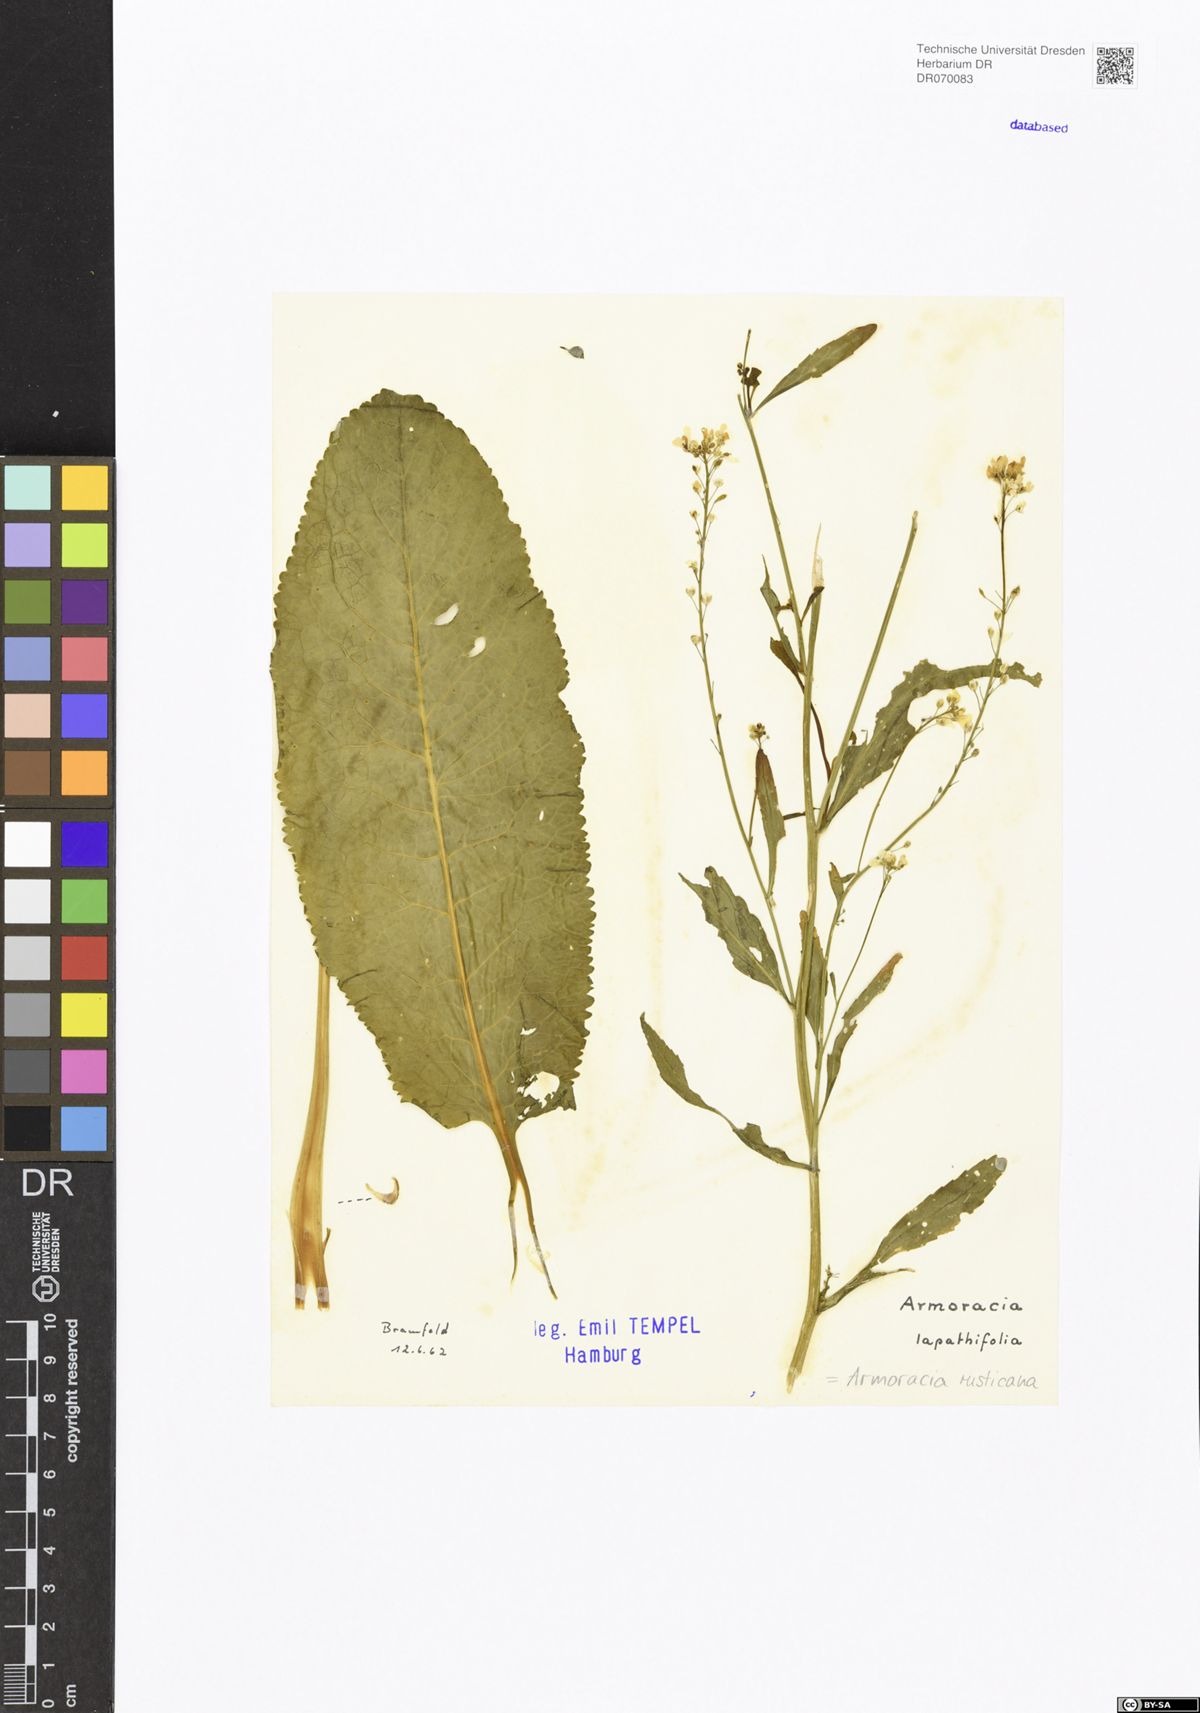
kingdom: Plantae
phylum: Tracheophyta
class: Magnoliopsida
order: Brassicales
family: Brassicaceae
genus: Armoracia
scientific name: Armoracia rusticana
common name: Horseradish
